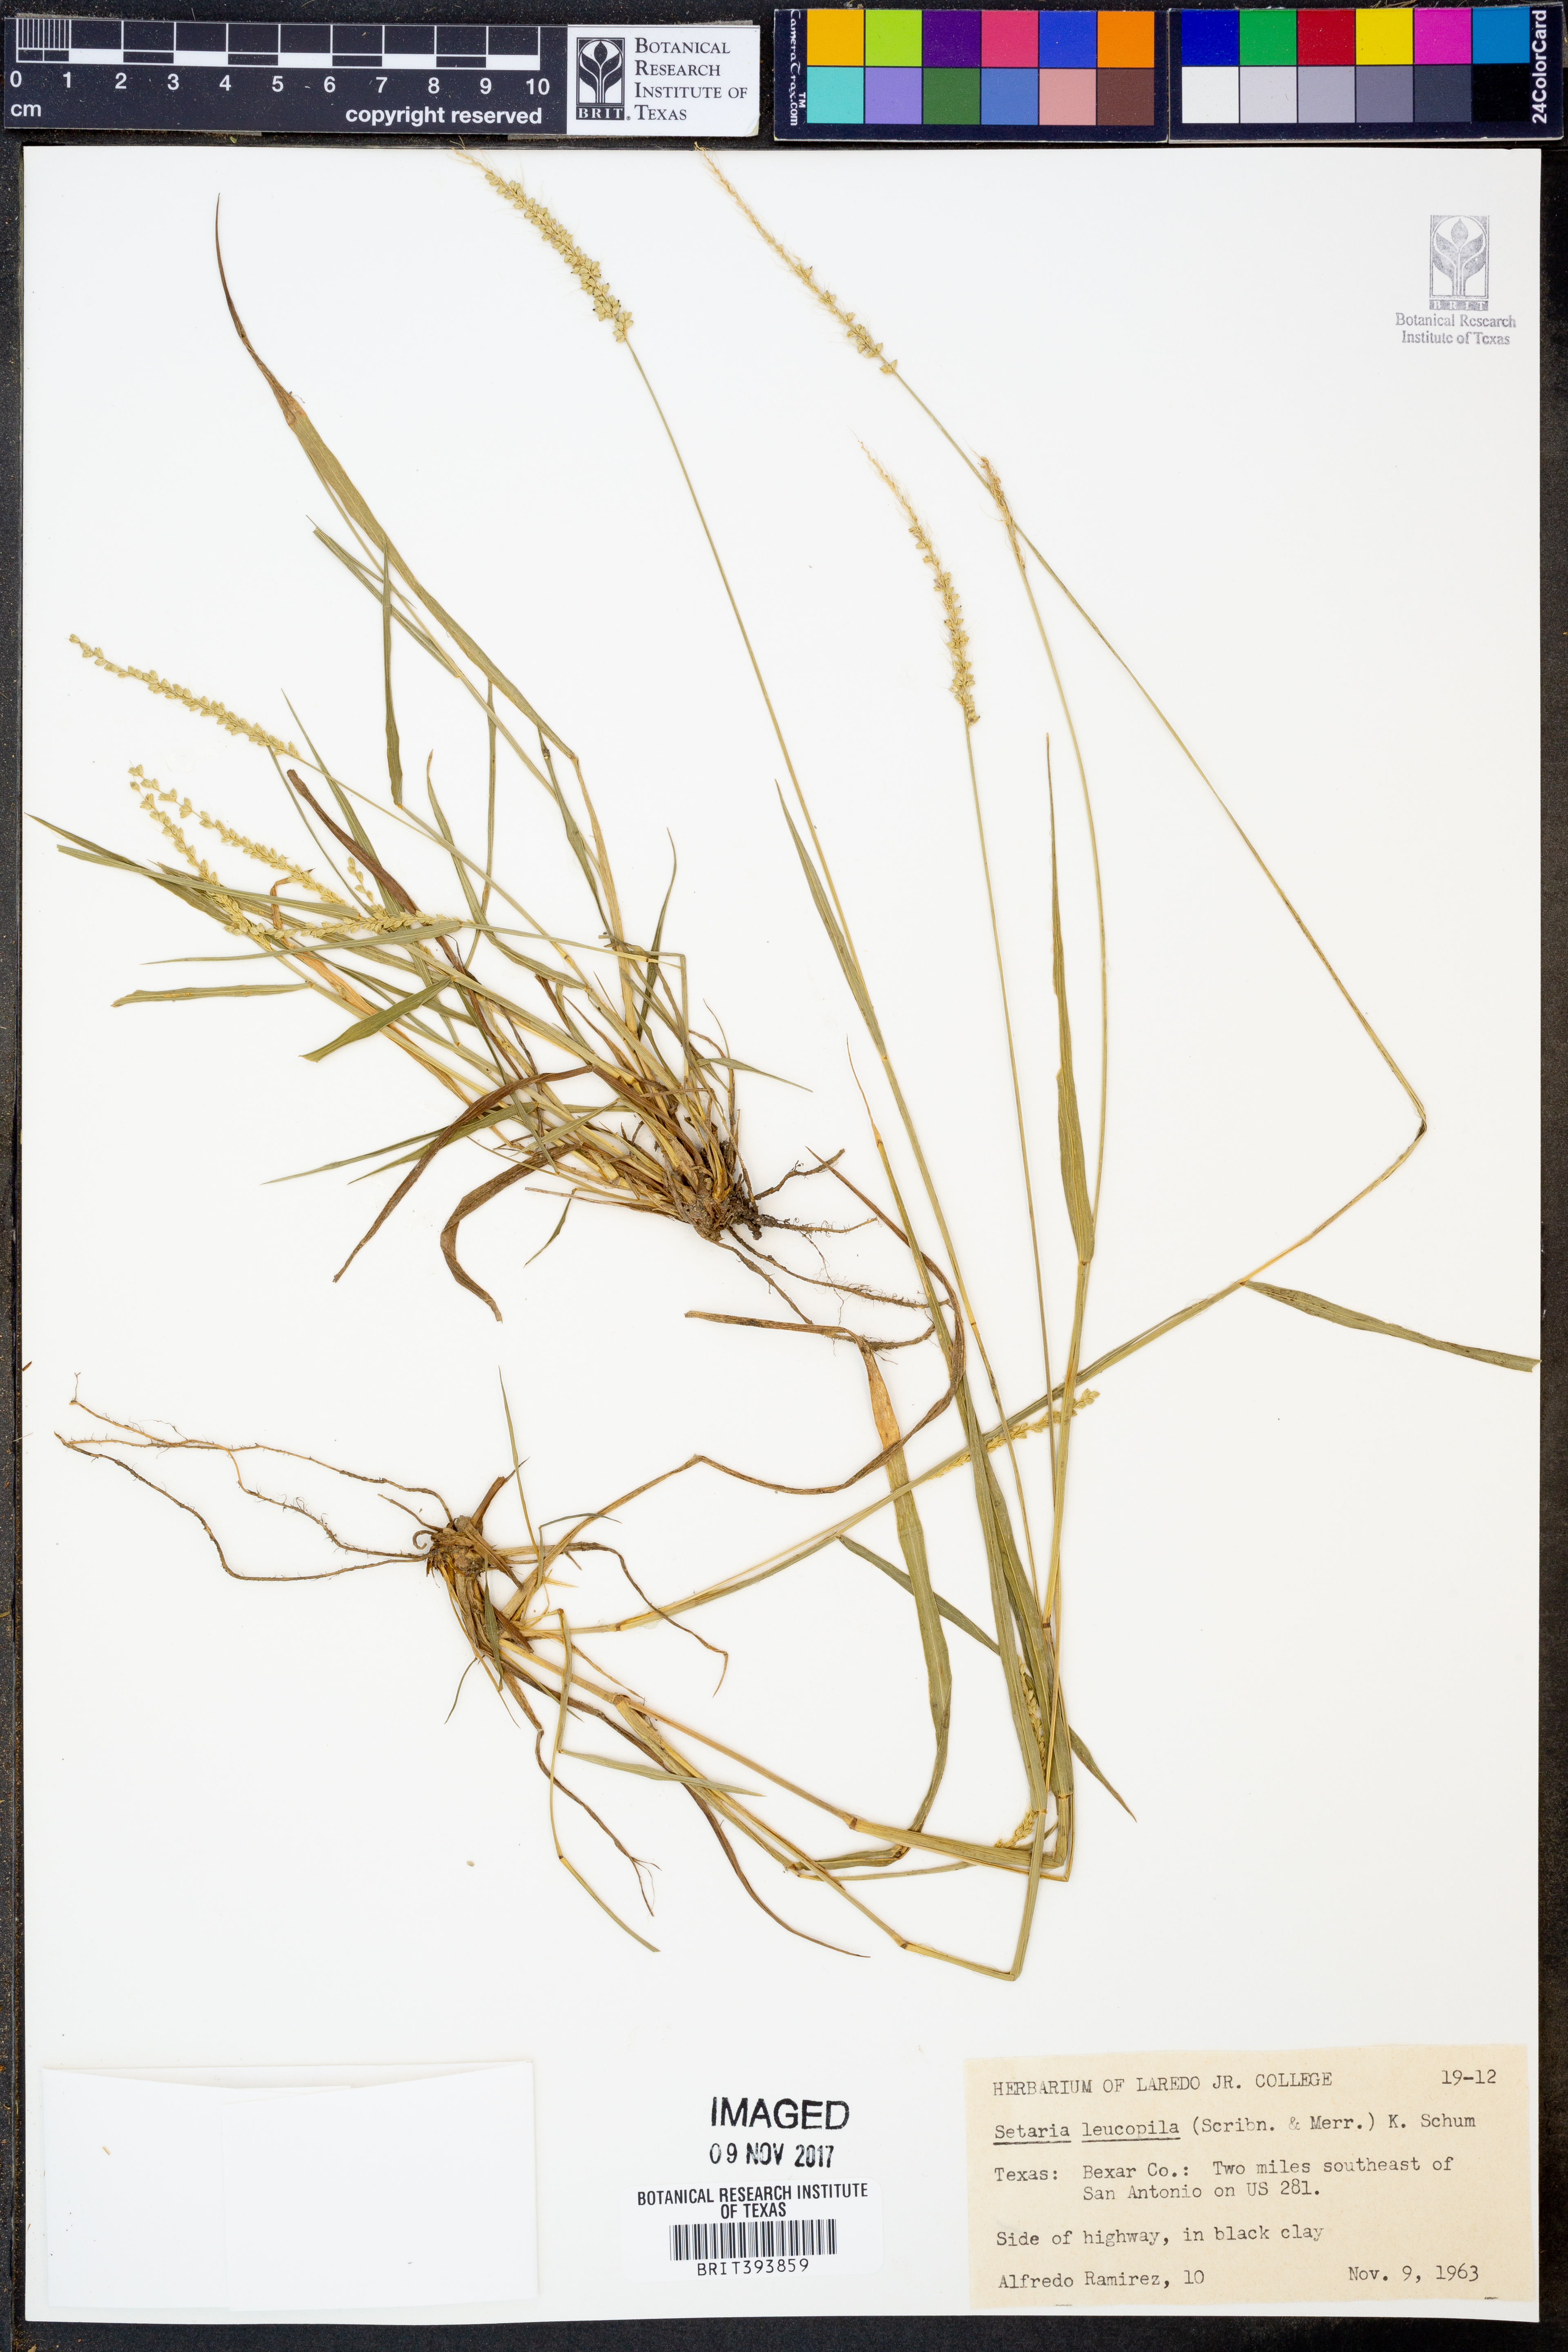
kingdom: Plantae
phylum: Tracheophyta
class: Liliopsida
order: Poales
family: Poaceae
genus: Setaria
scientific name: Setaria leucopila
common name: Plains bristle grass
